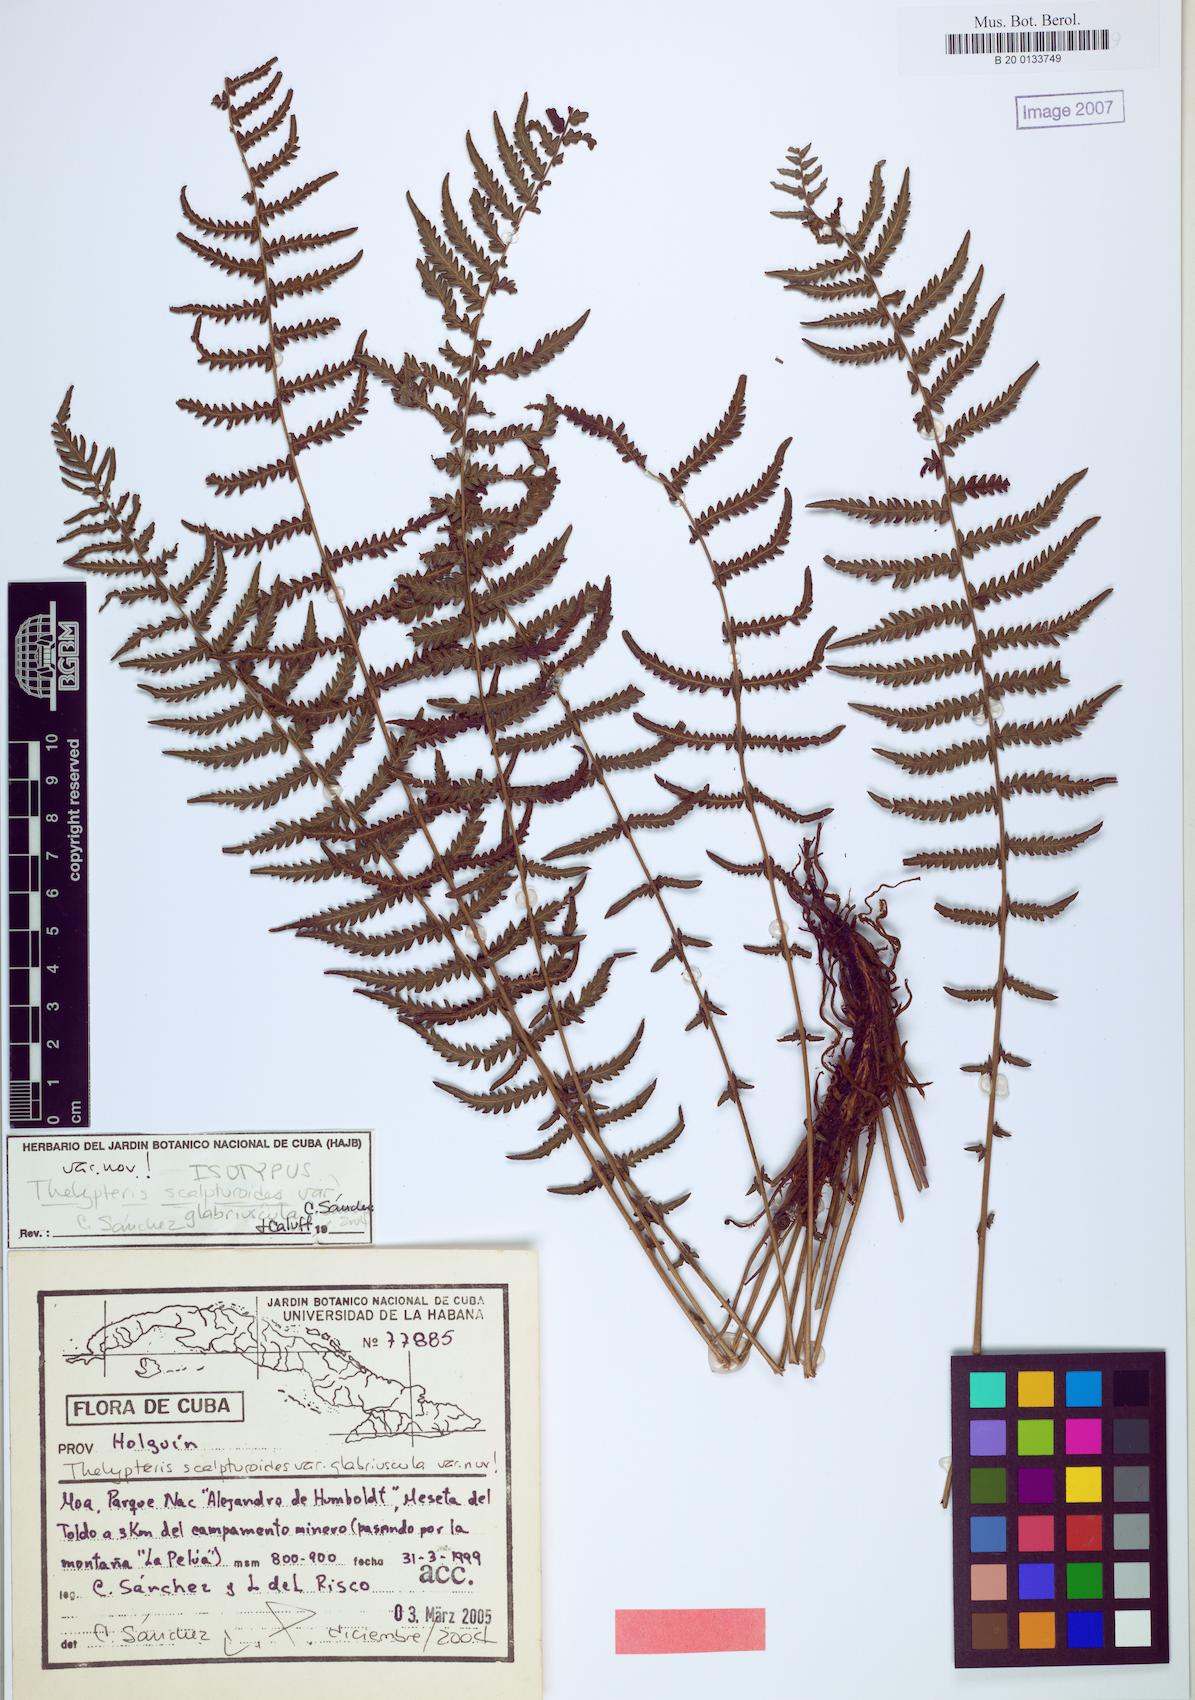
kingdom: Plantae
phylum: Tracheophyta
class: Polypodiopsida
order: Polypodiales
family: Thelypteridaceae
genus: Amauropelta
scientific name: Amauropelta scalpturoides
